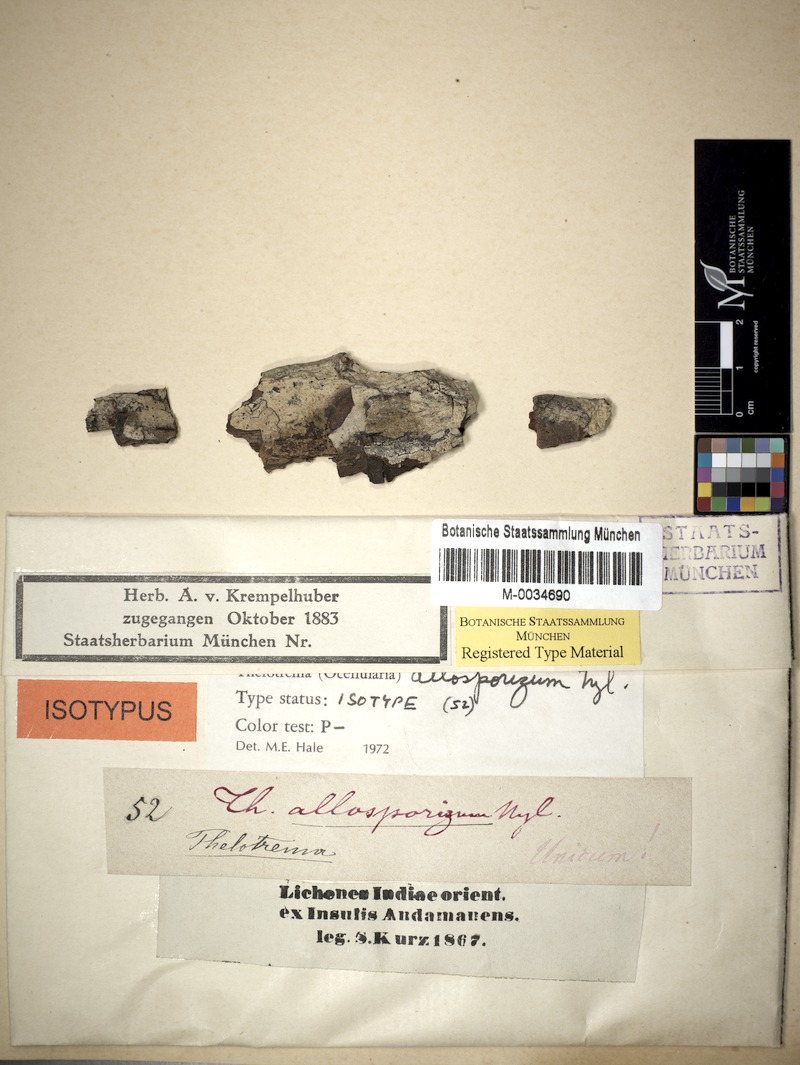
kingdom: Fungi
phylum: Ascomycota
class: Lecanoromycetes
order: Ostropales
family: Graphidaceae
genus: Ocellularia
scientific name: Ocellularia allosporiza
